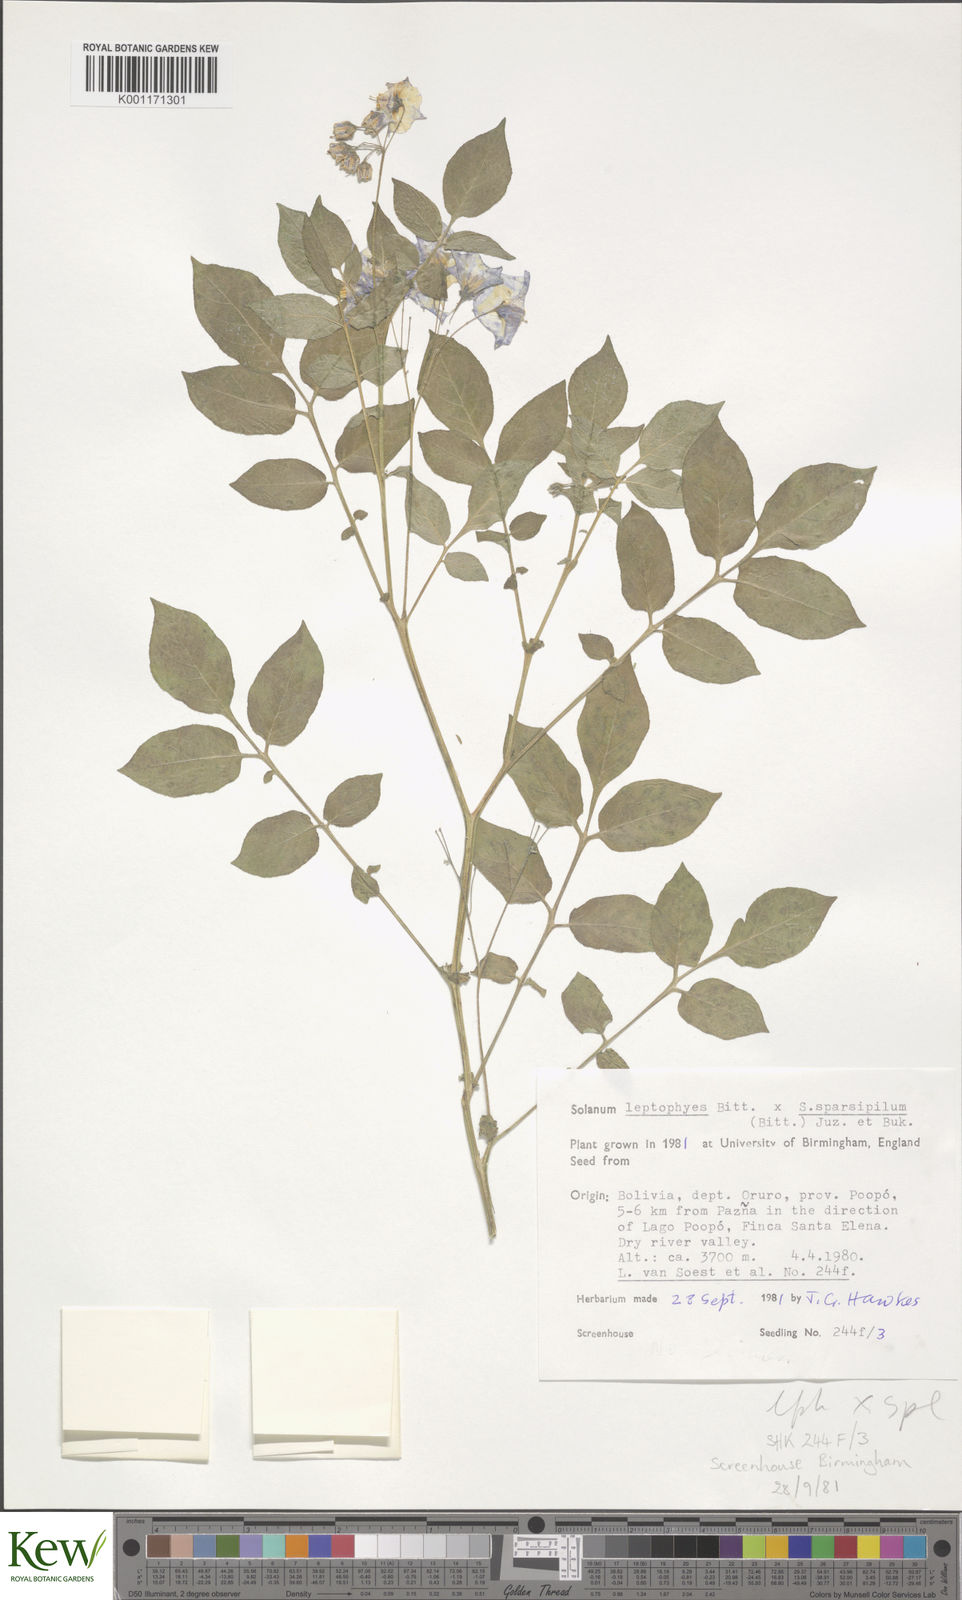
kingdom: Plantae
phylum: Tracheophyta
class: Magnoliopsida
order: Solanales
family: Solanaceae
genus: Solanum
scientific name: Solanum brevicaule
